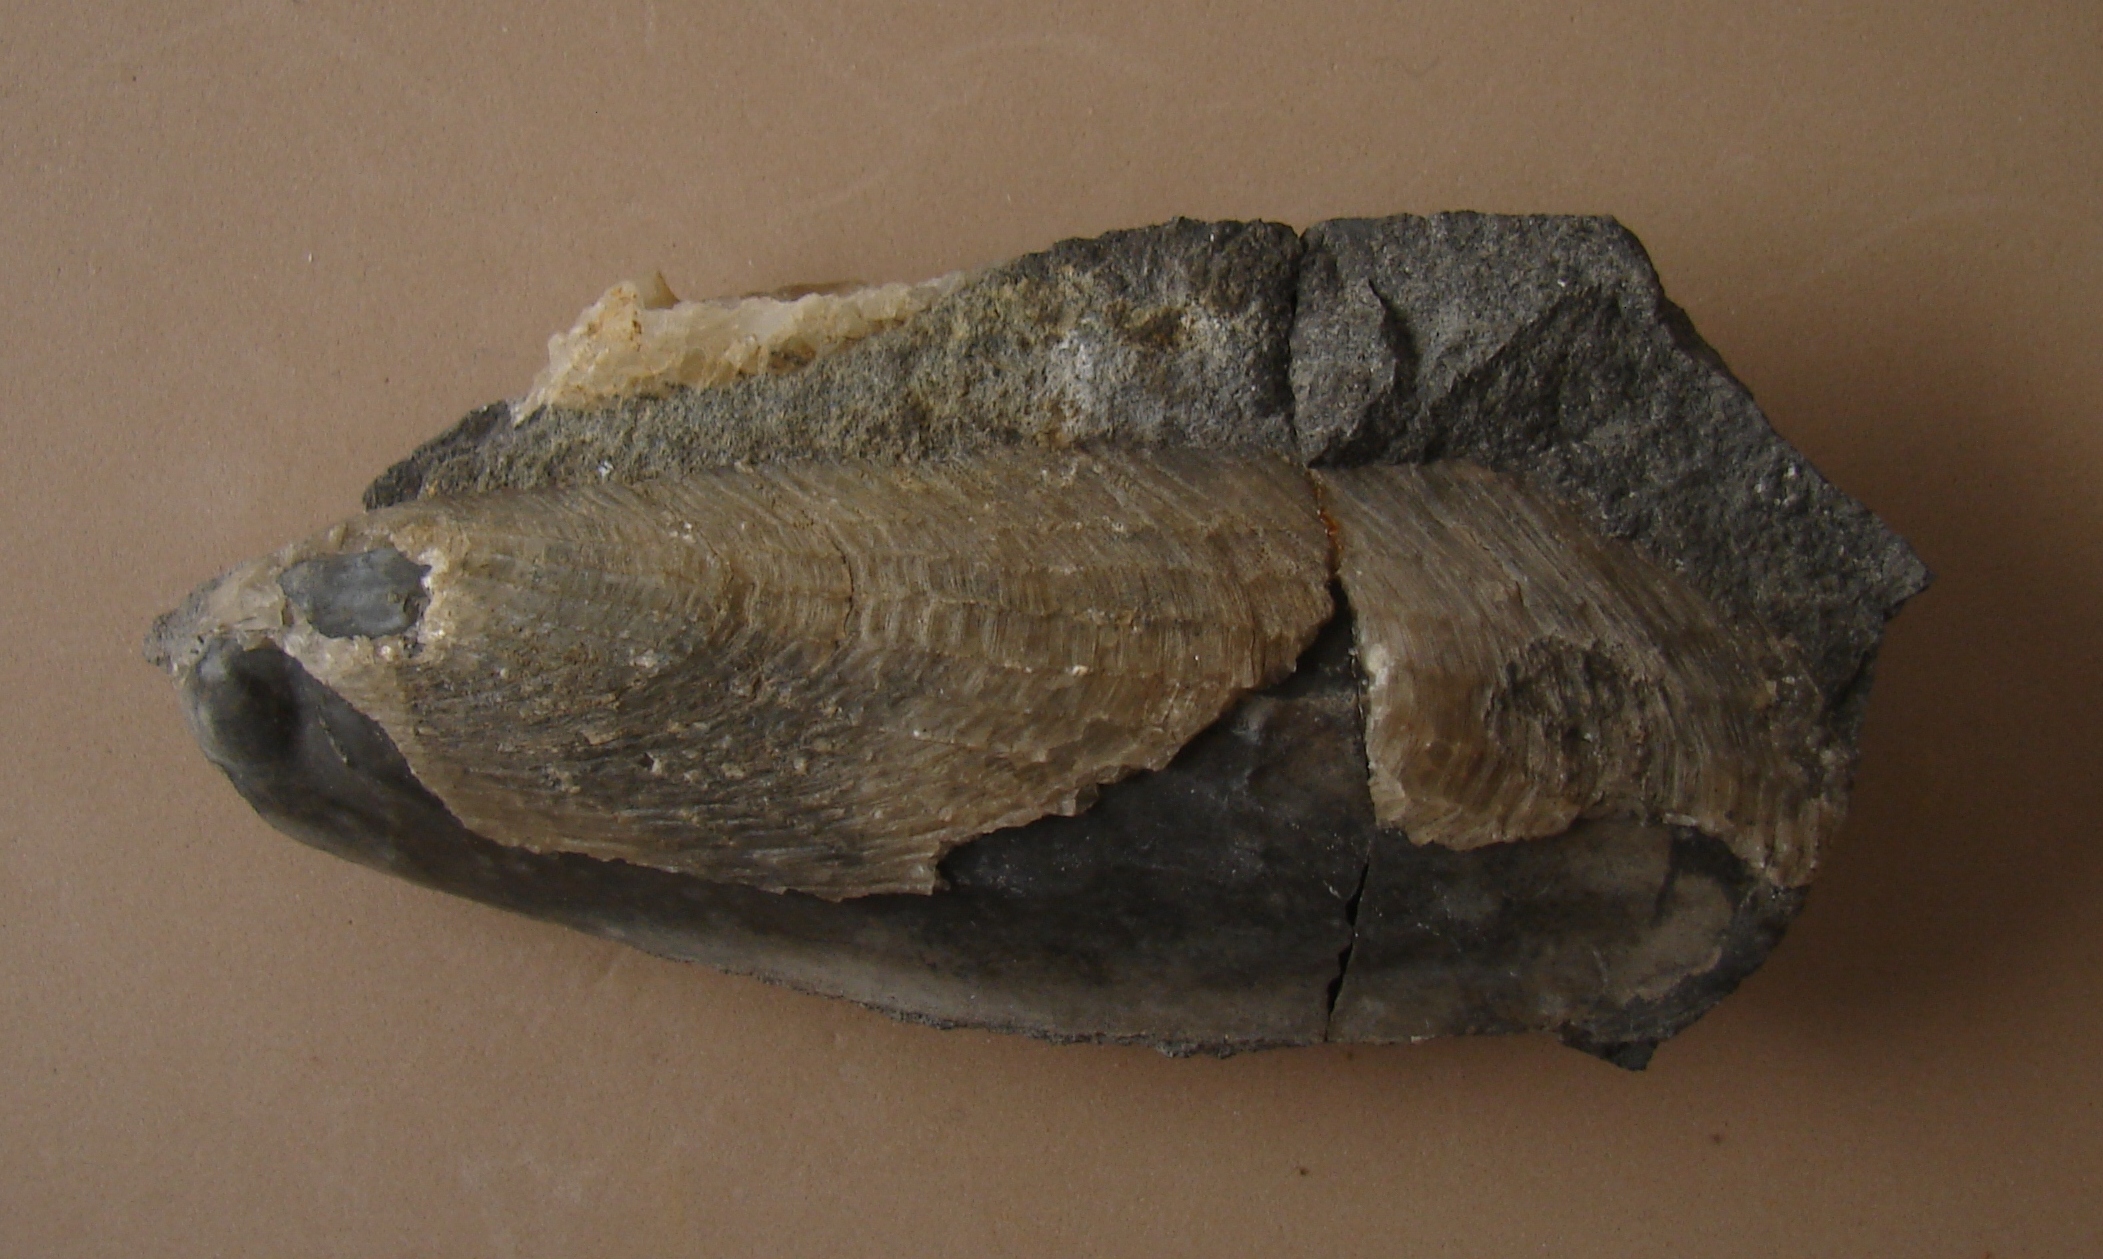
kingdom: Animalia
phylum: Mollusca
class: Bivalvia
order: Venerida
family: Kalenteridae
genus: Myoconcha
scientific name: Myoconcha scabra
